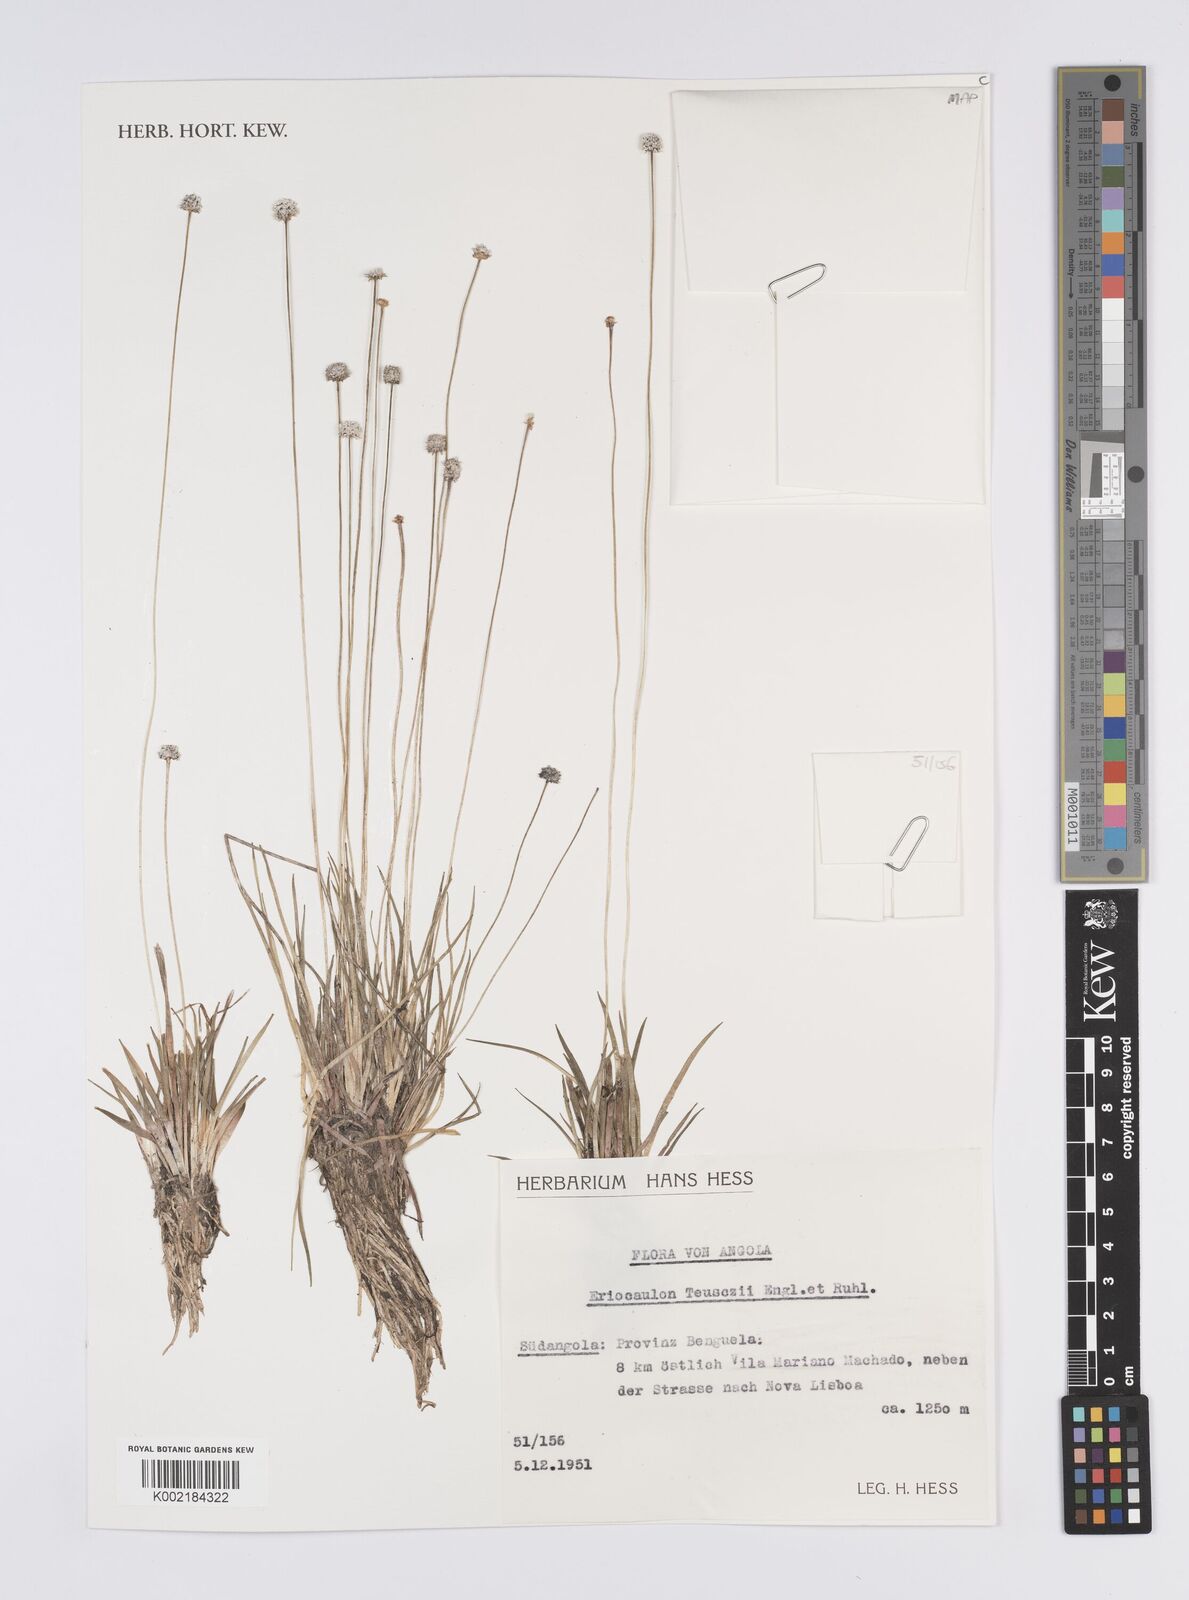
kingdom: Plantae
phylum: Tracheophyta
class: Liliopsida
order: Poales
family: Eriocaulaceae
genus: Eriocaulon
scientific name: Eriocaulon teusczii
